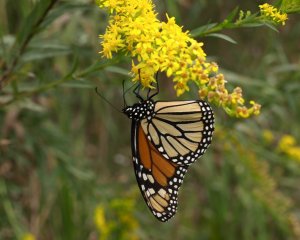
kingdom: Animalia
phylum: Arthropoda
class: Insecta
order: Lepidoptera
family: Nymphalidae
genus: Danaus
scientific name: Danaus plexippus
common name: Monarch
